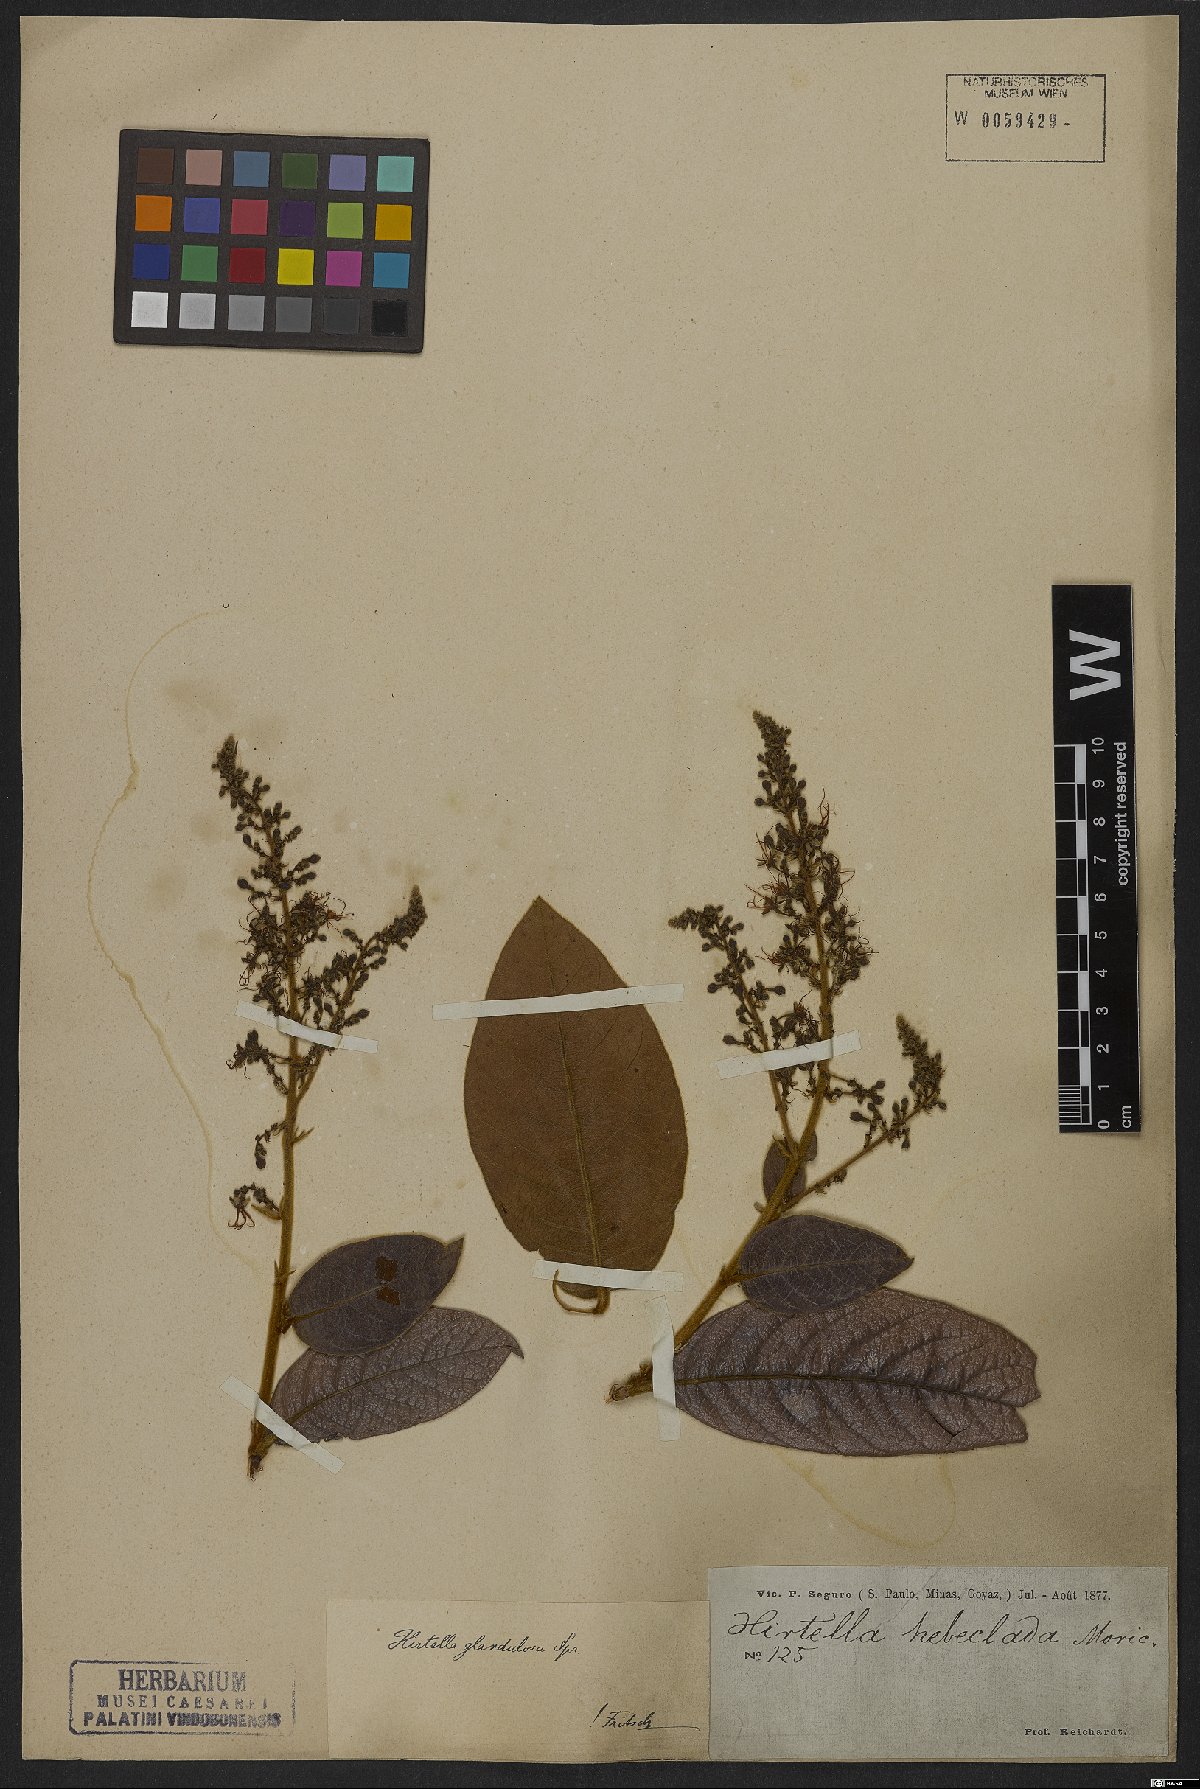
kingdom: Plantae
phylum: Tracheophyta
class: Magnoliopsida
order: Malpighiales
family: Chrysobalanaceae
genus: Hirtella
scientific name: Hirtella glandulosa
